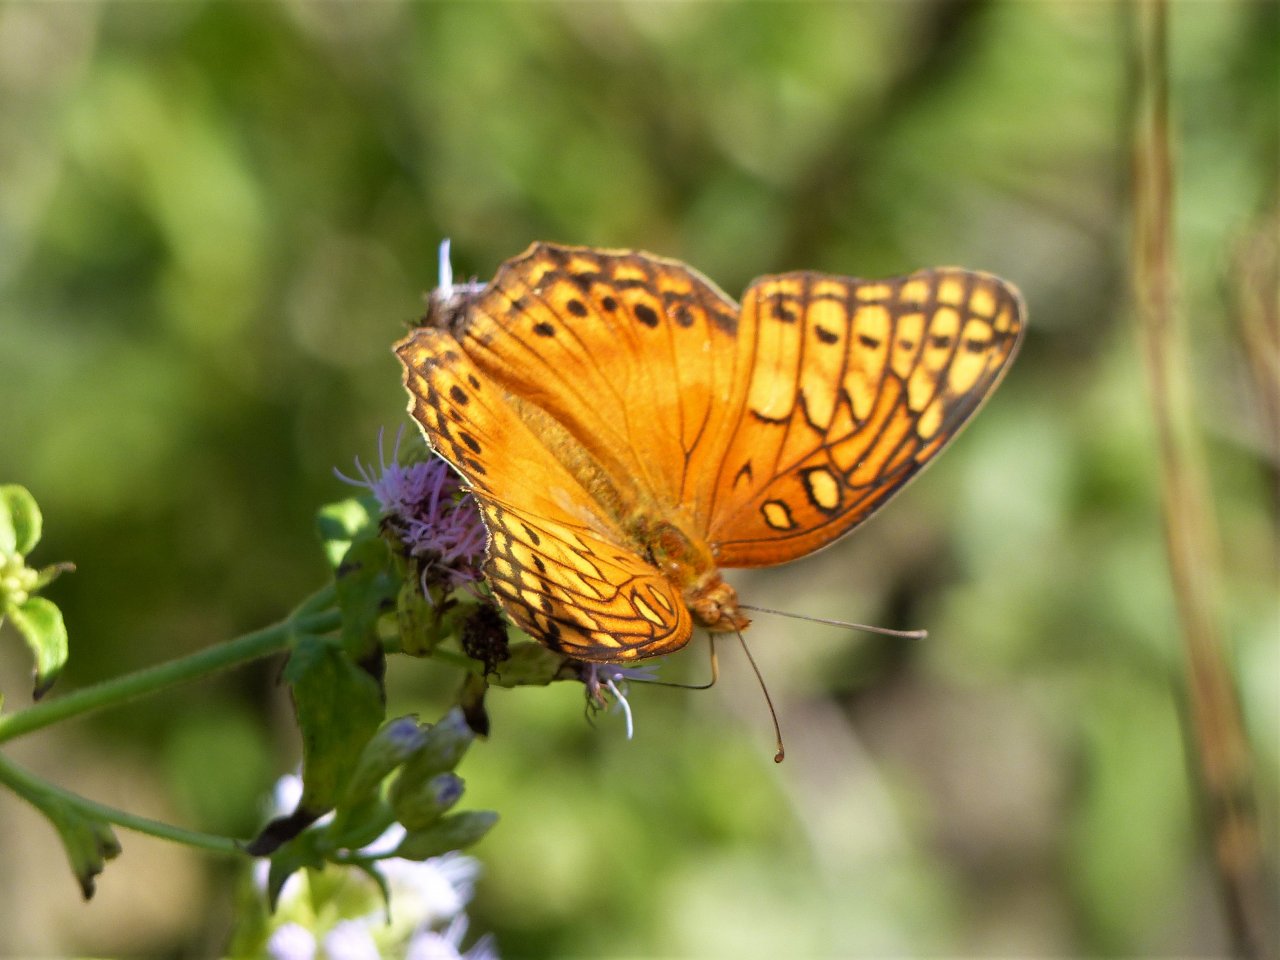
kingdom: Animalia
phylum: Arthropoda
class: Insecta
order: Lepidoptera
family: Nymphalidae
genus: Euptoieta
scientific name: Euptoieta hegesia
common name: Mexican Fritillary
